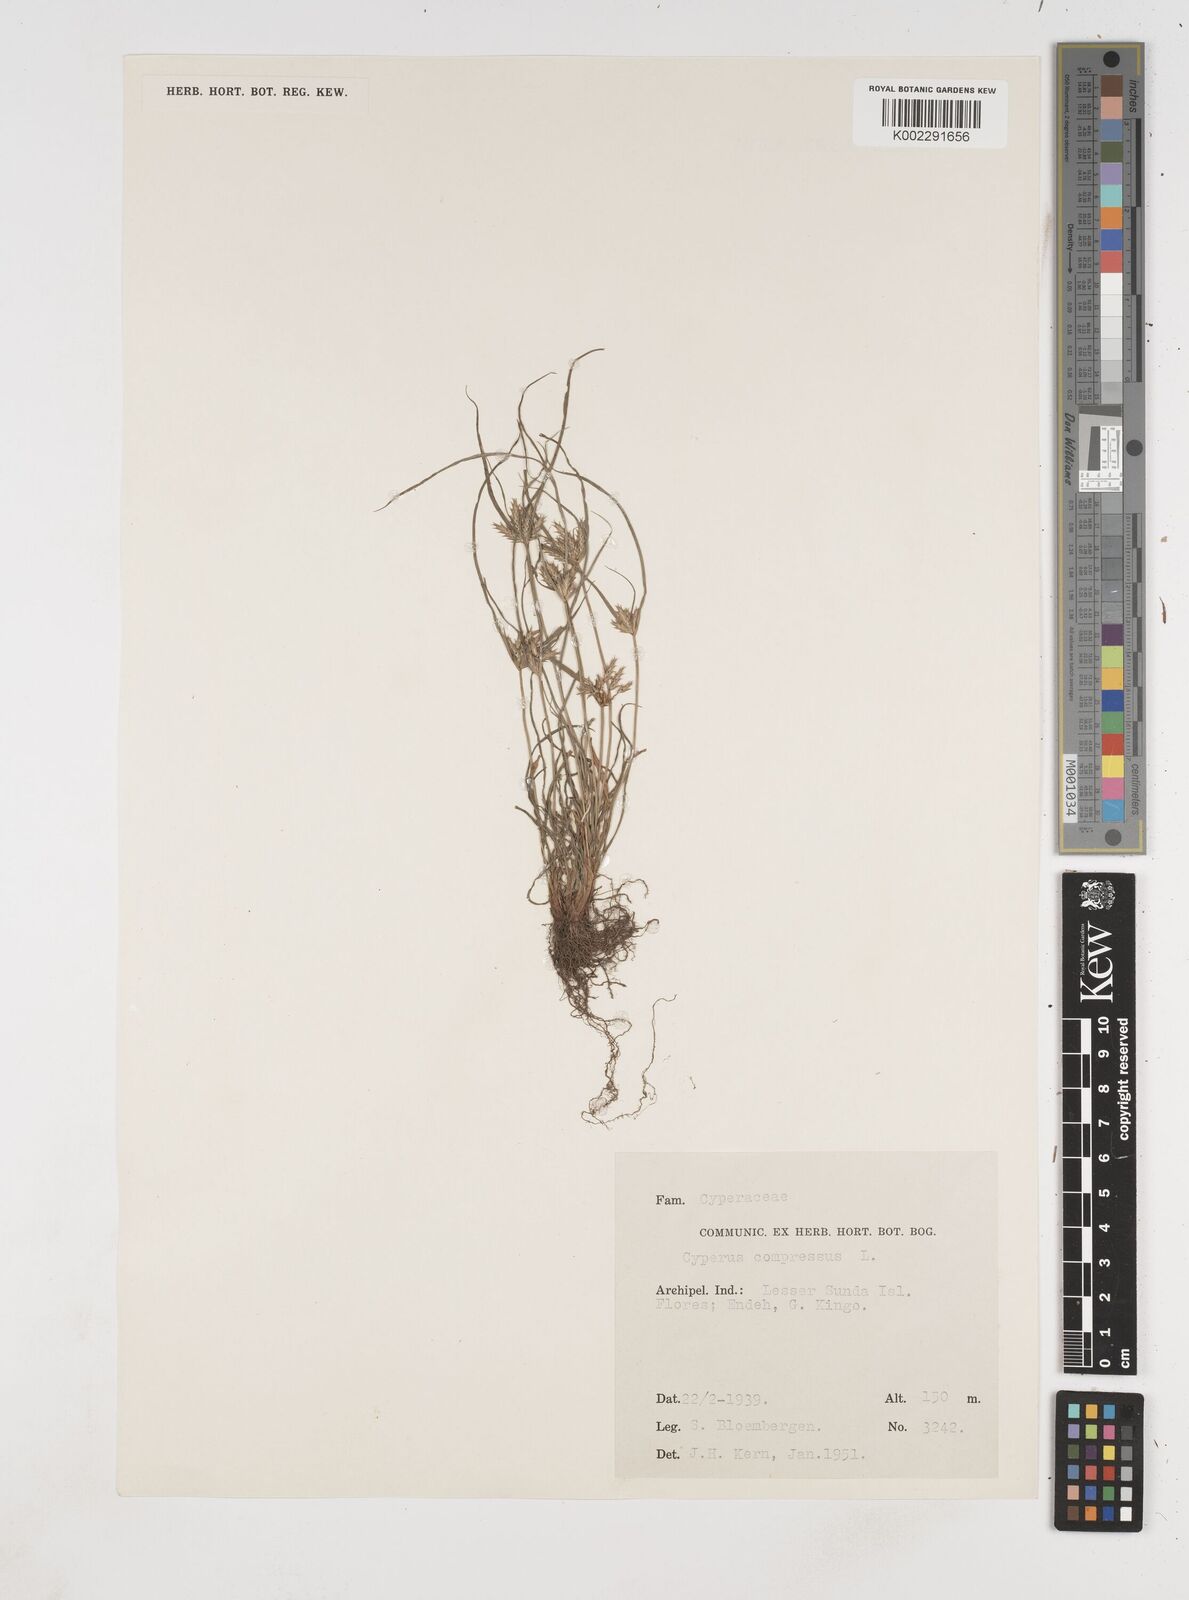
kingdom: Plantae
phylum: Tracheophyta
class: Liliopsida
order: Poales
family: Cyperaceae
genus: Cyperus
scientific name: Cyperus compressus
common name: Poorland flatsedge
